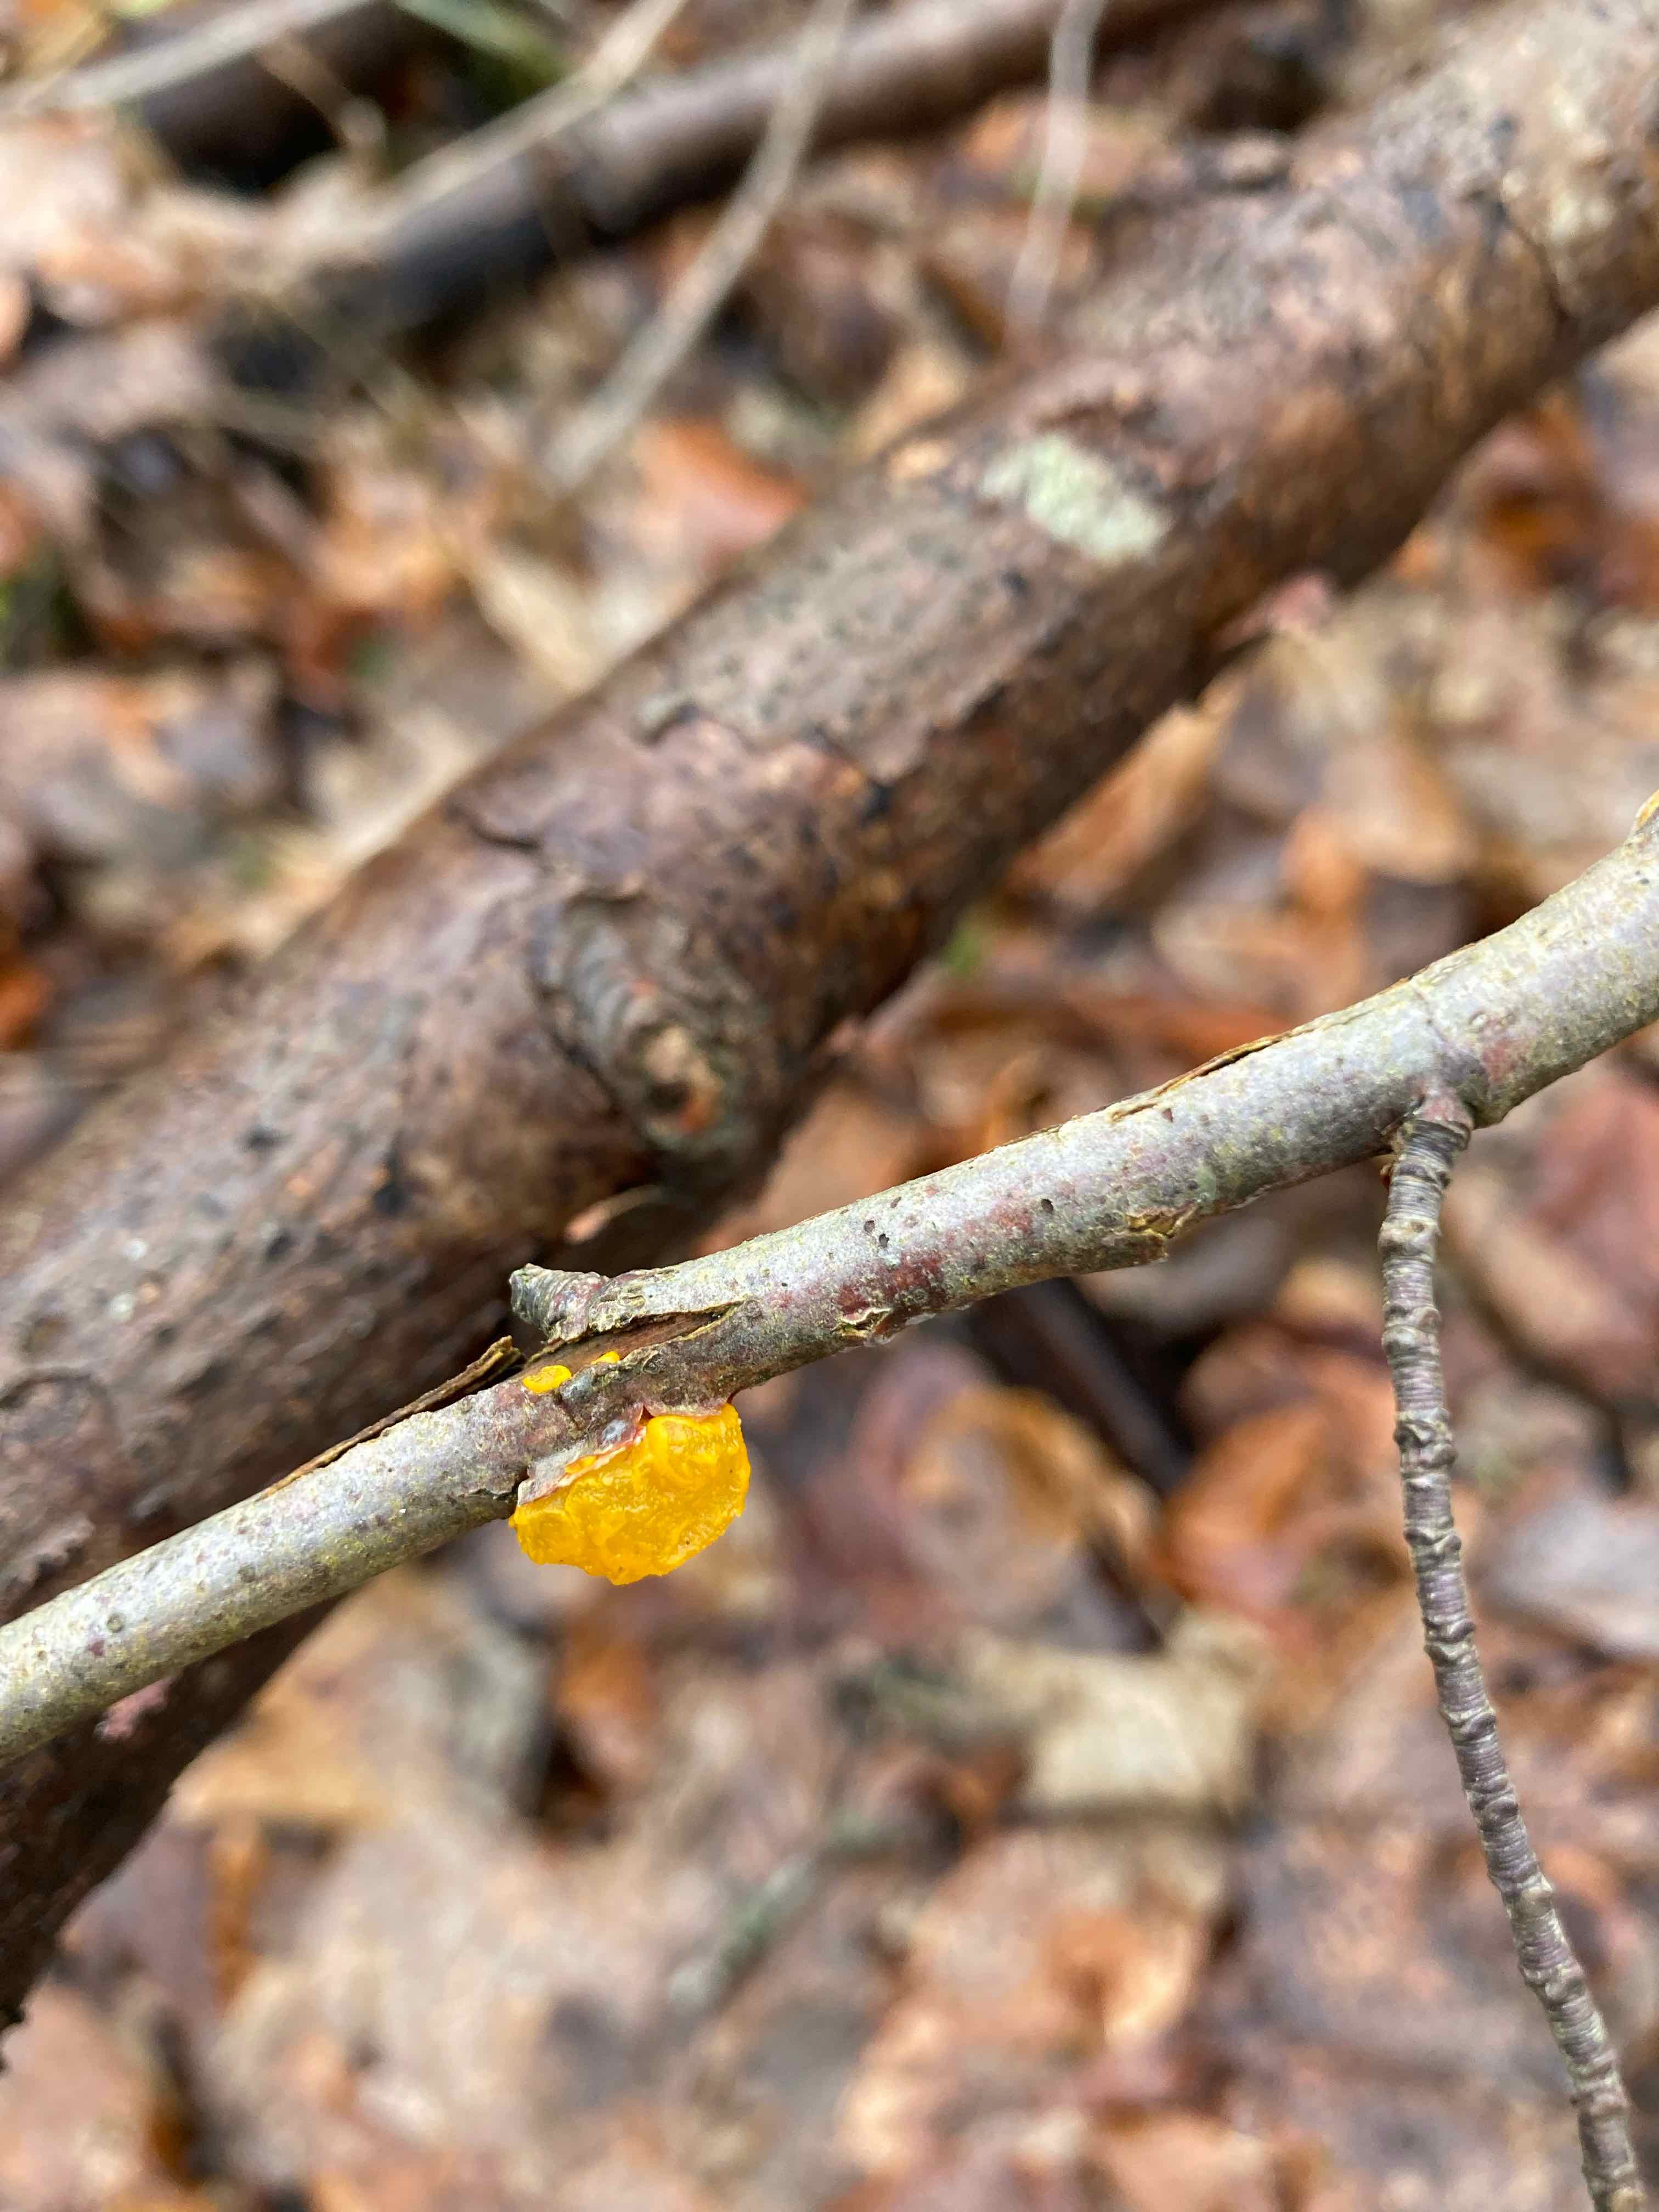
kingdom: Fungi
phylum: Basidiomycota
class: Tremellomycetes
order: Tremellales
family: Tremellaceae
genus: Tremella
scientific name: Tremella mesenterica
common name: gul bævresvamp
